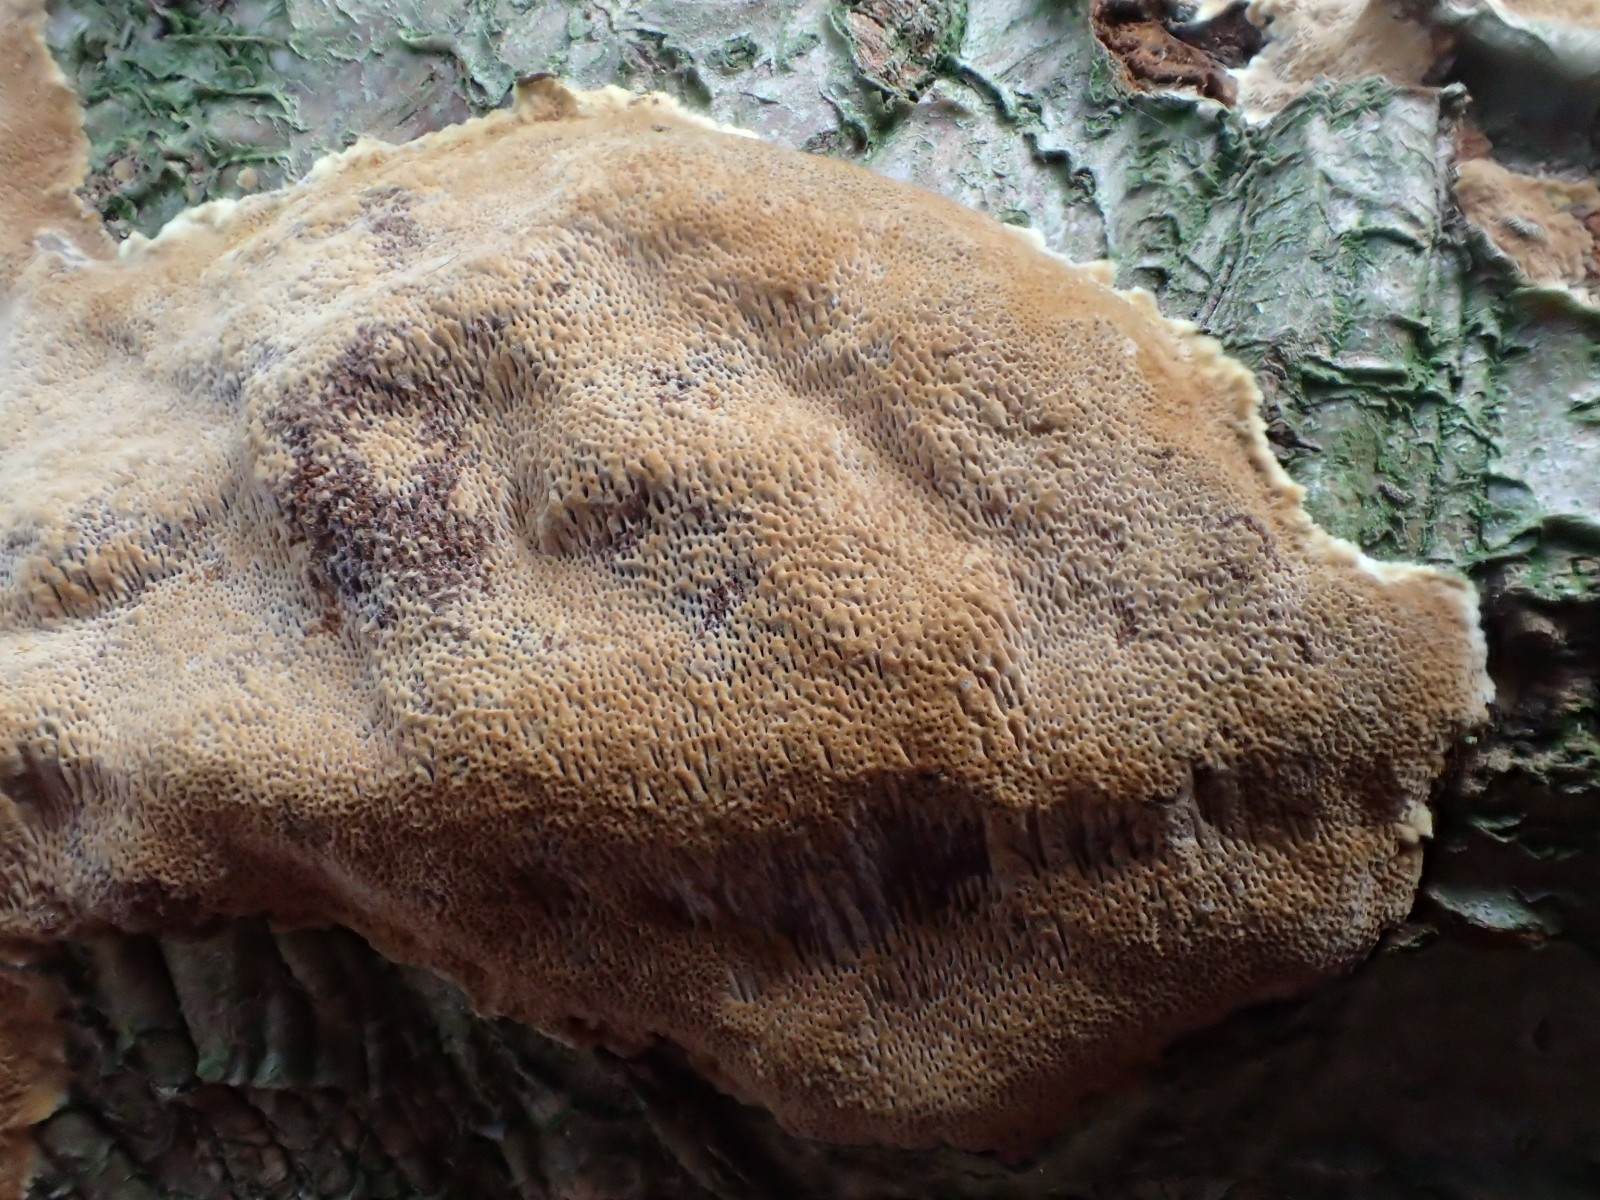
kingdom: Fungi
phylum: Basidiomycota
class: Agaricomycetes
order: Hymenochaetales
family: Hymenochaetaceae
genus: Fuscoporia
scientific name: Fuscoporia ferrea
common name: skorpe-ildporesvamp
